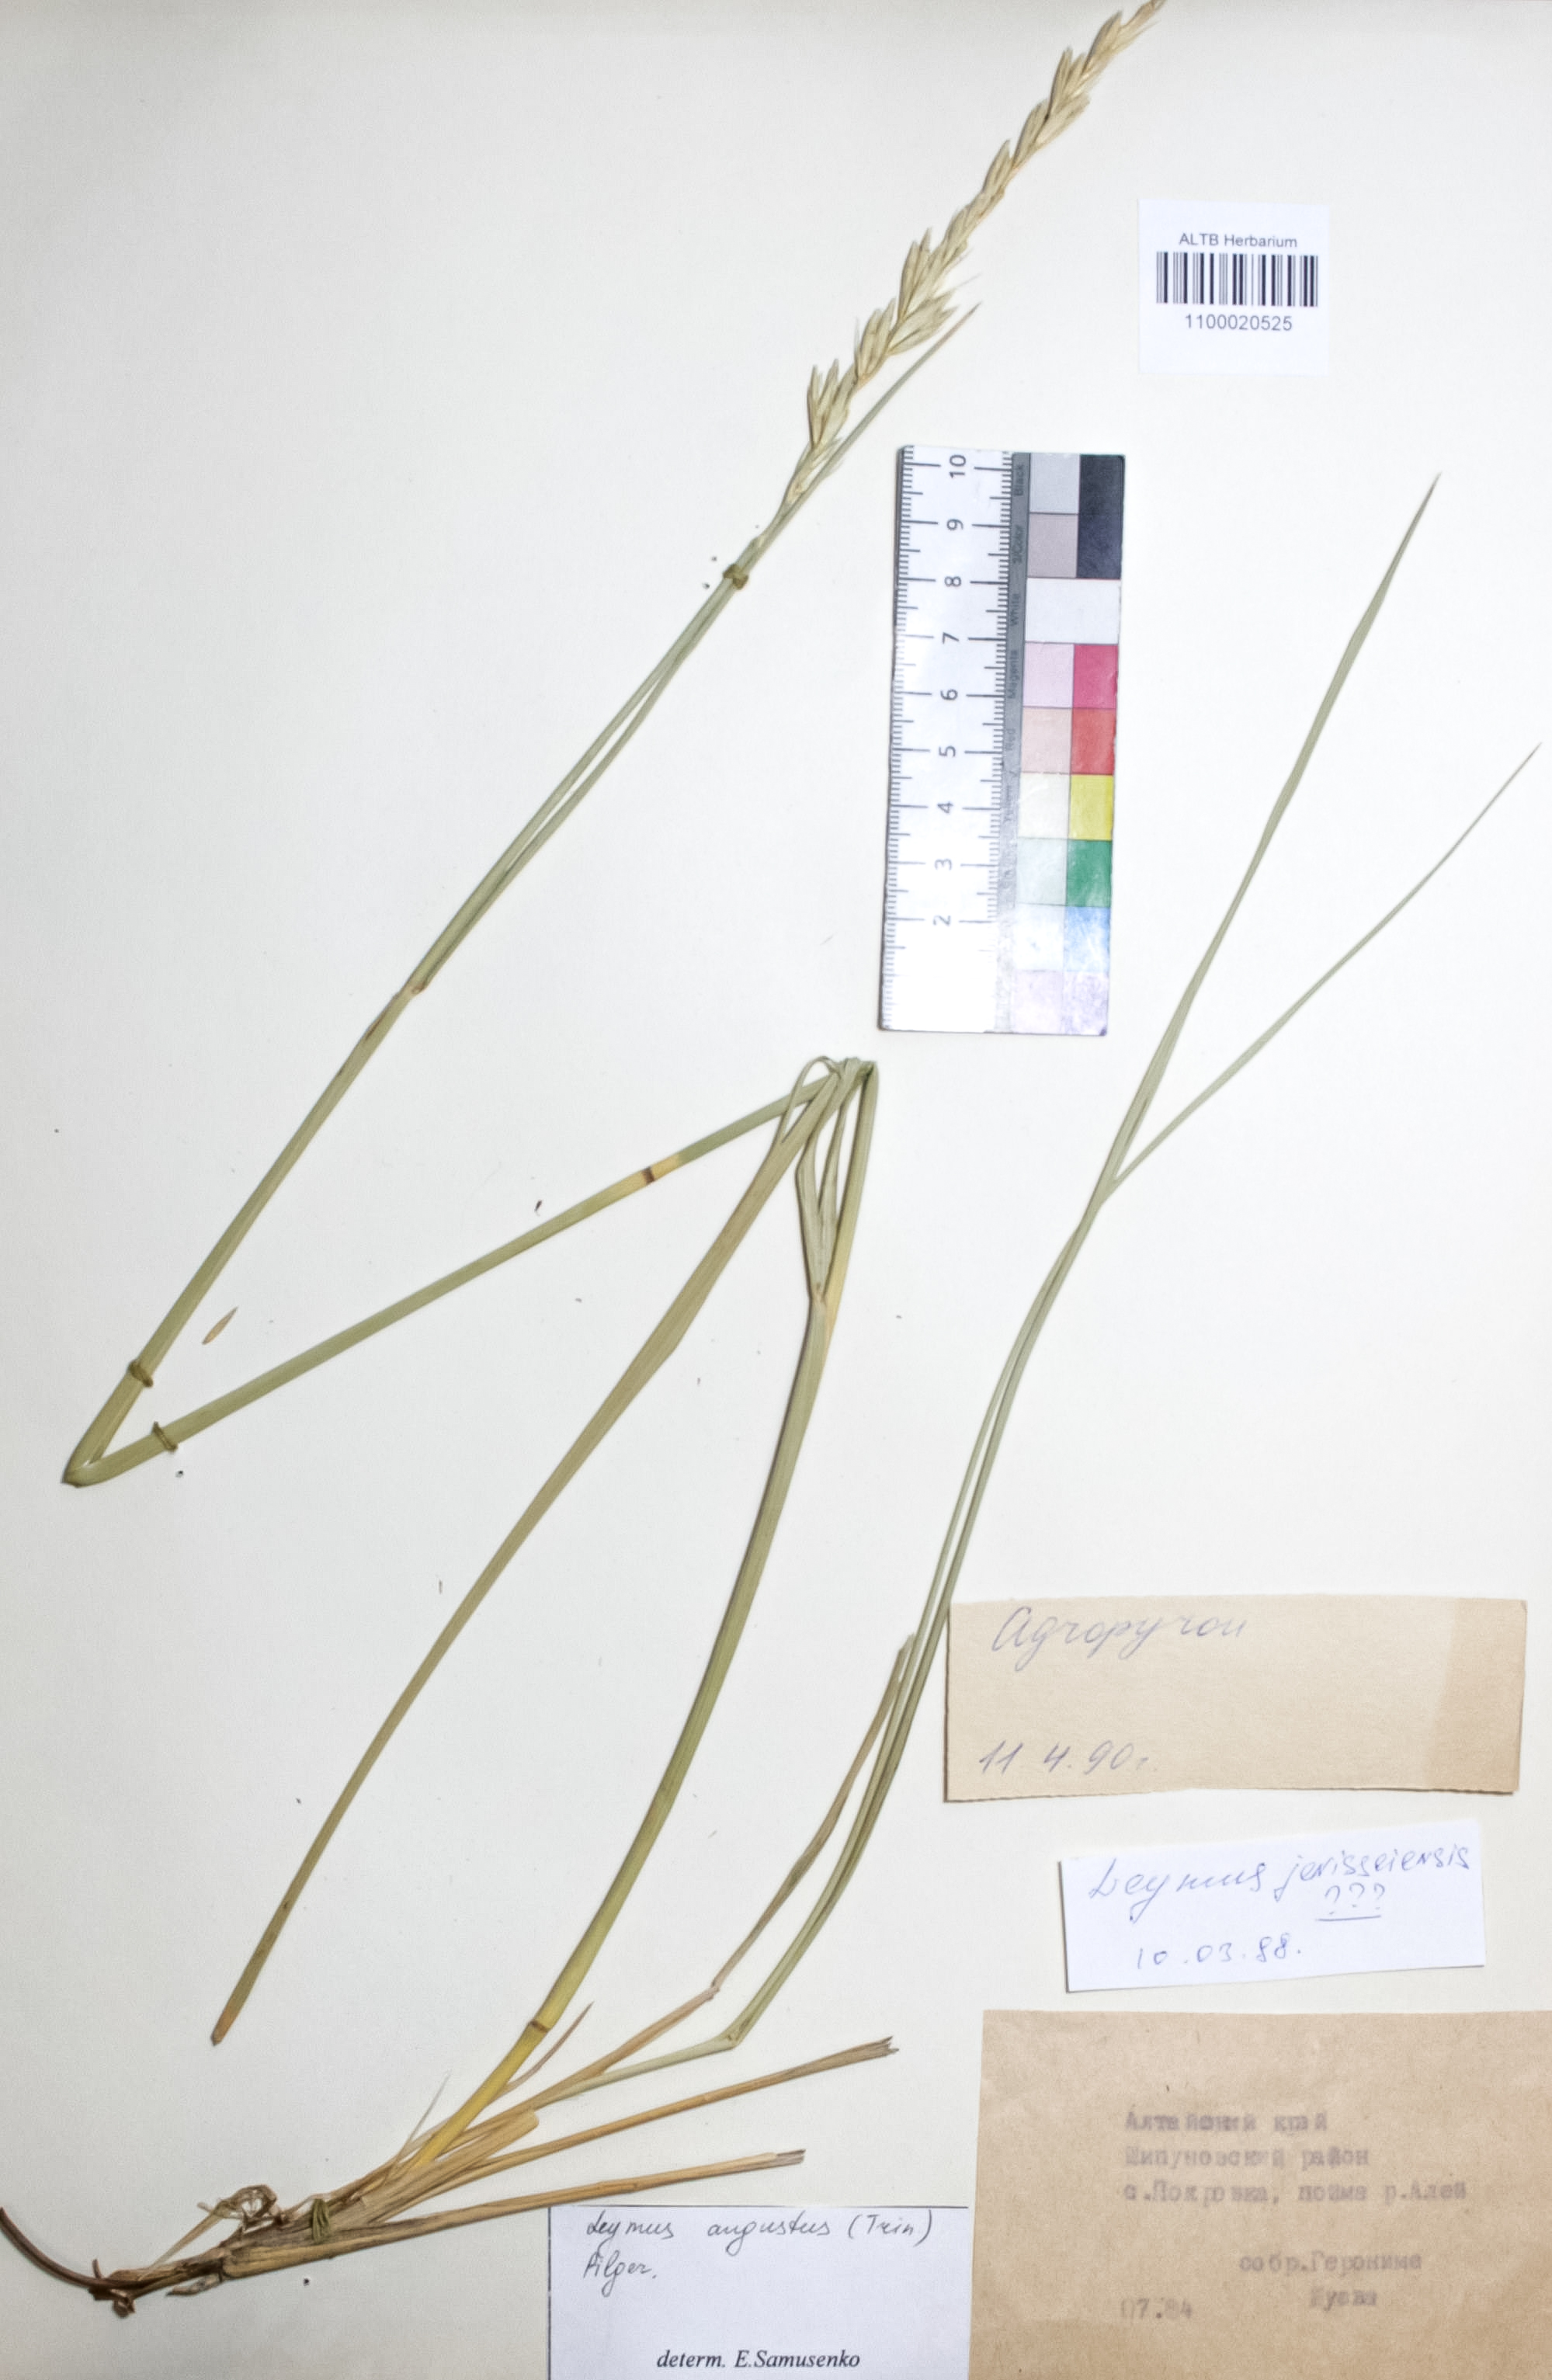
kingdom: Plantae
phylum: Tracheophyta
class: Liliopsida
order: Poales
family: Poaceae
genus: Leymus
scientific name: Leymus angustus
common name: Altai wildrye
